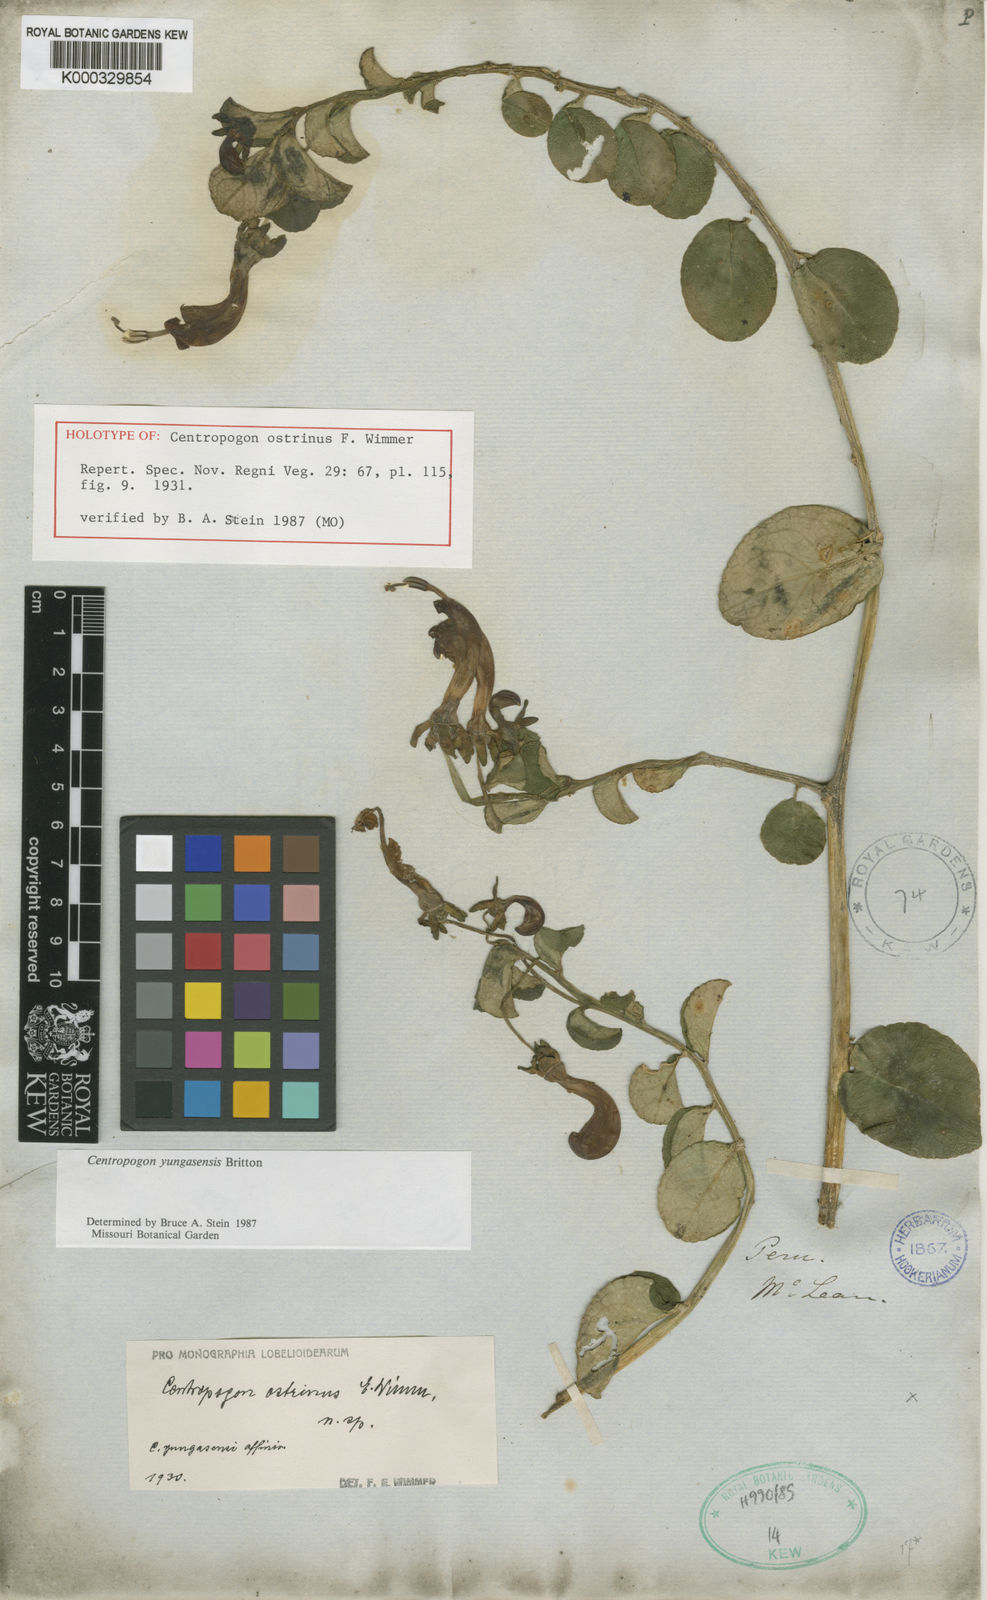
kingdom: Plantae
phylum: Tracheophyta
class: Magnoliopsida
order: Asterales
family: Campanulaceae
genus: Centropogon
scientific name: Centropogon yungasensis
